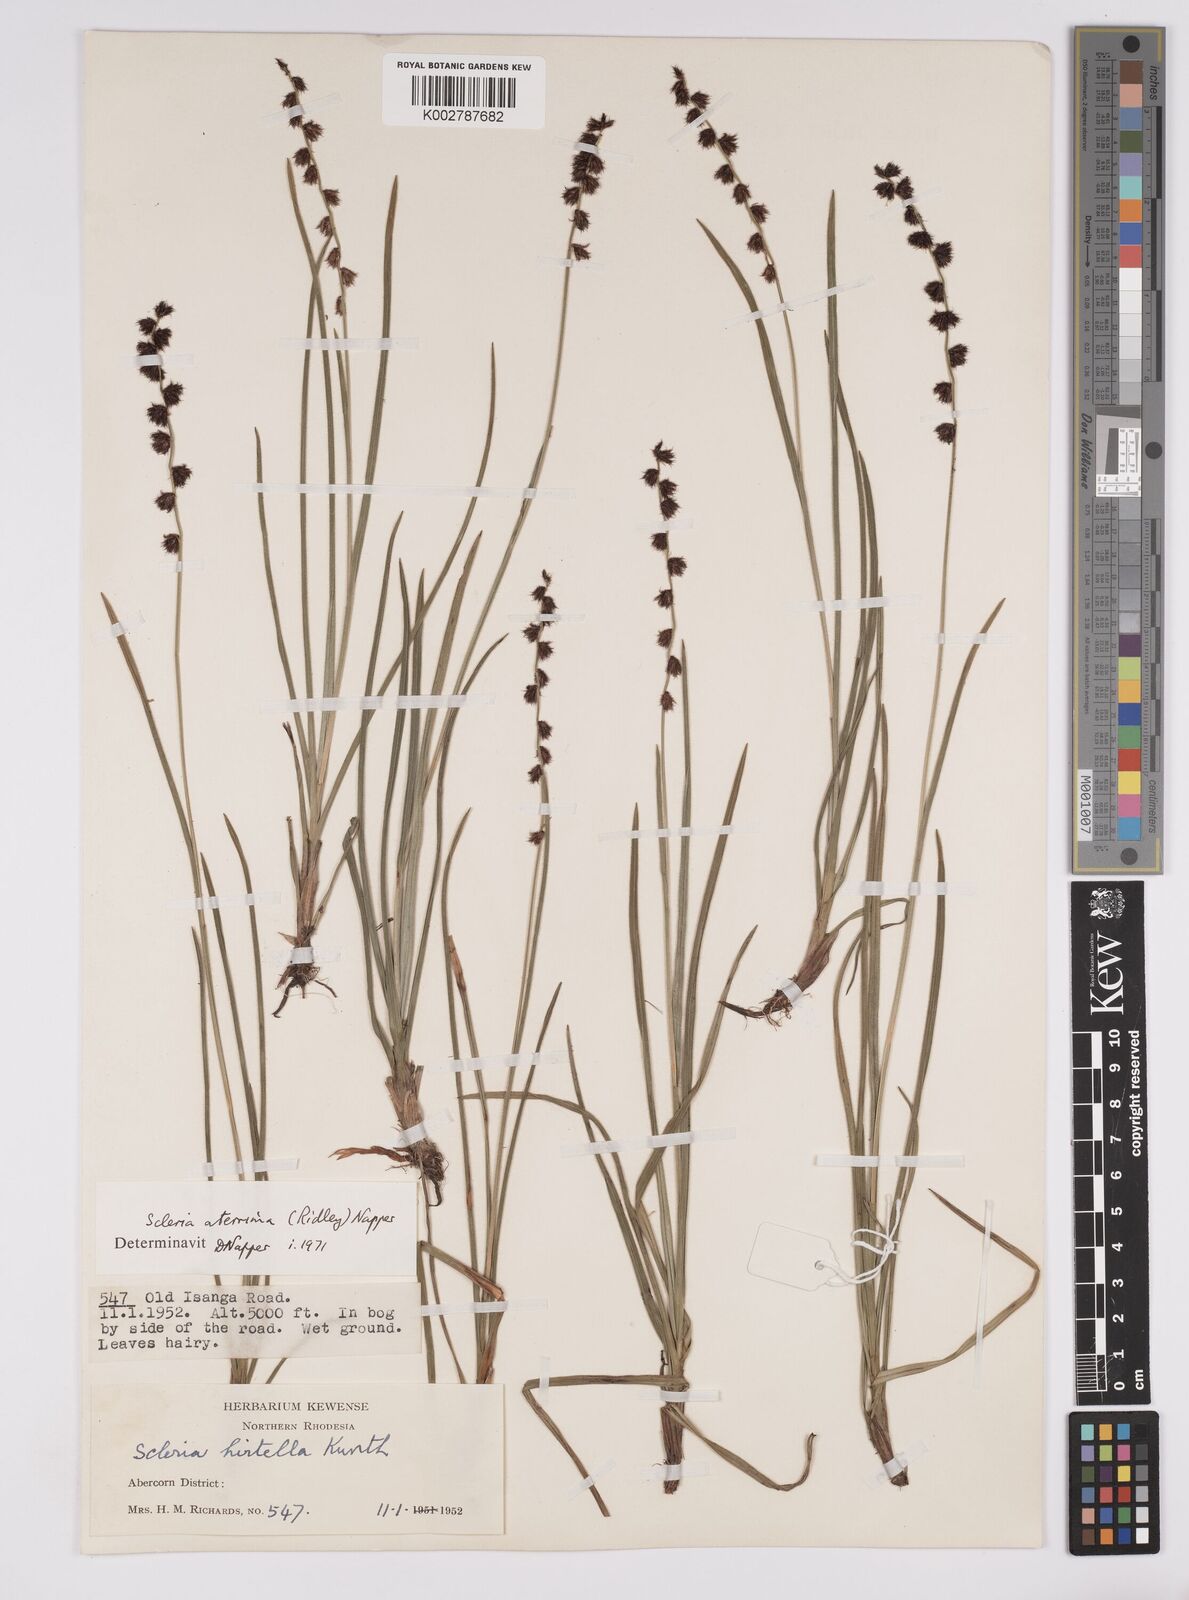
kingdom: Plantae
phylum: Tracheophyta
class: Liliopsida
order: Poales
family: Cyperaceae
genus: Scleria
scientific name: Scleria catophylla
